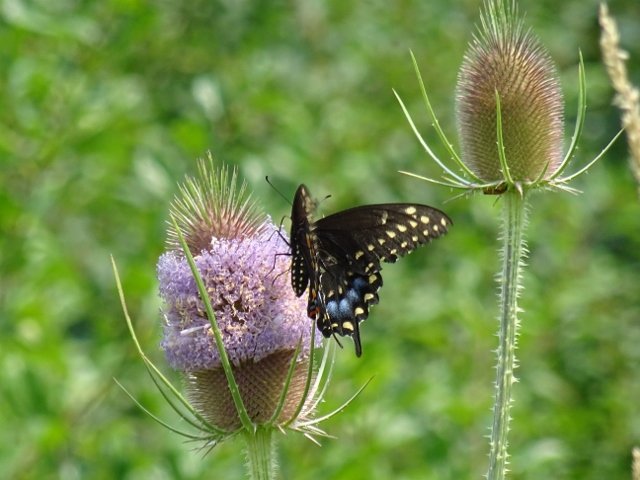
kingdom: Animalia
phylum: Arthropoda
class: Insecta
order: Lepidoptera
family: Papilionidae
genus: Papilio
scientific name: Papilio polyxenes
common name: Black Swallowtail
